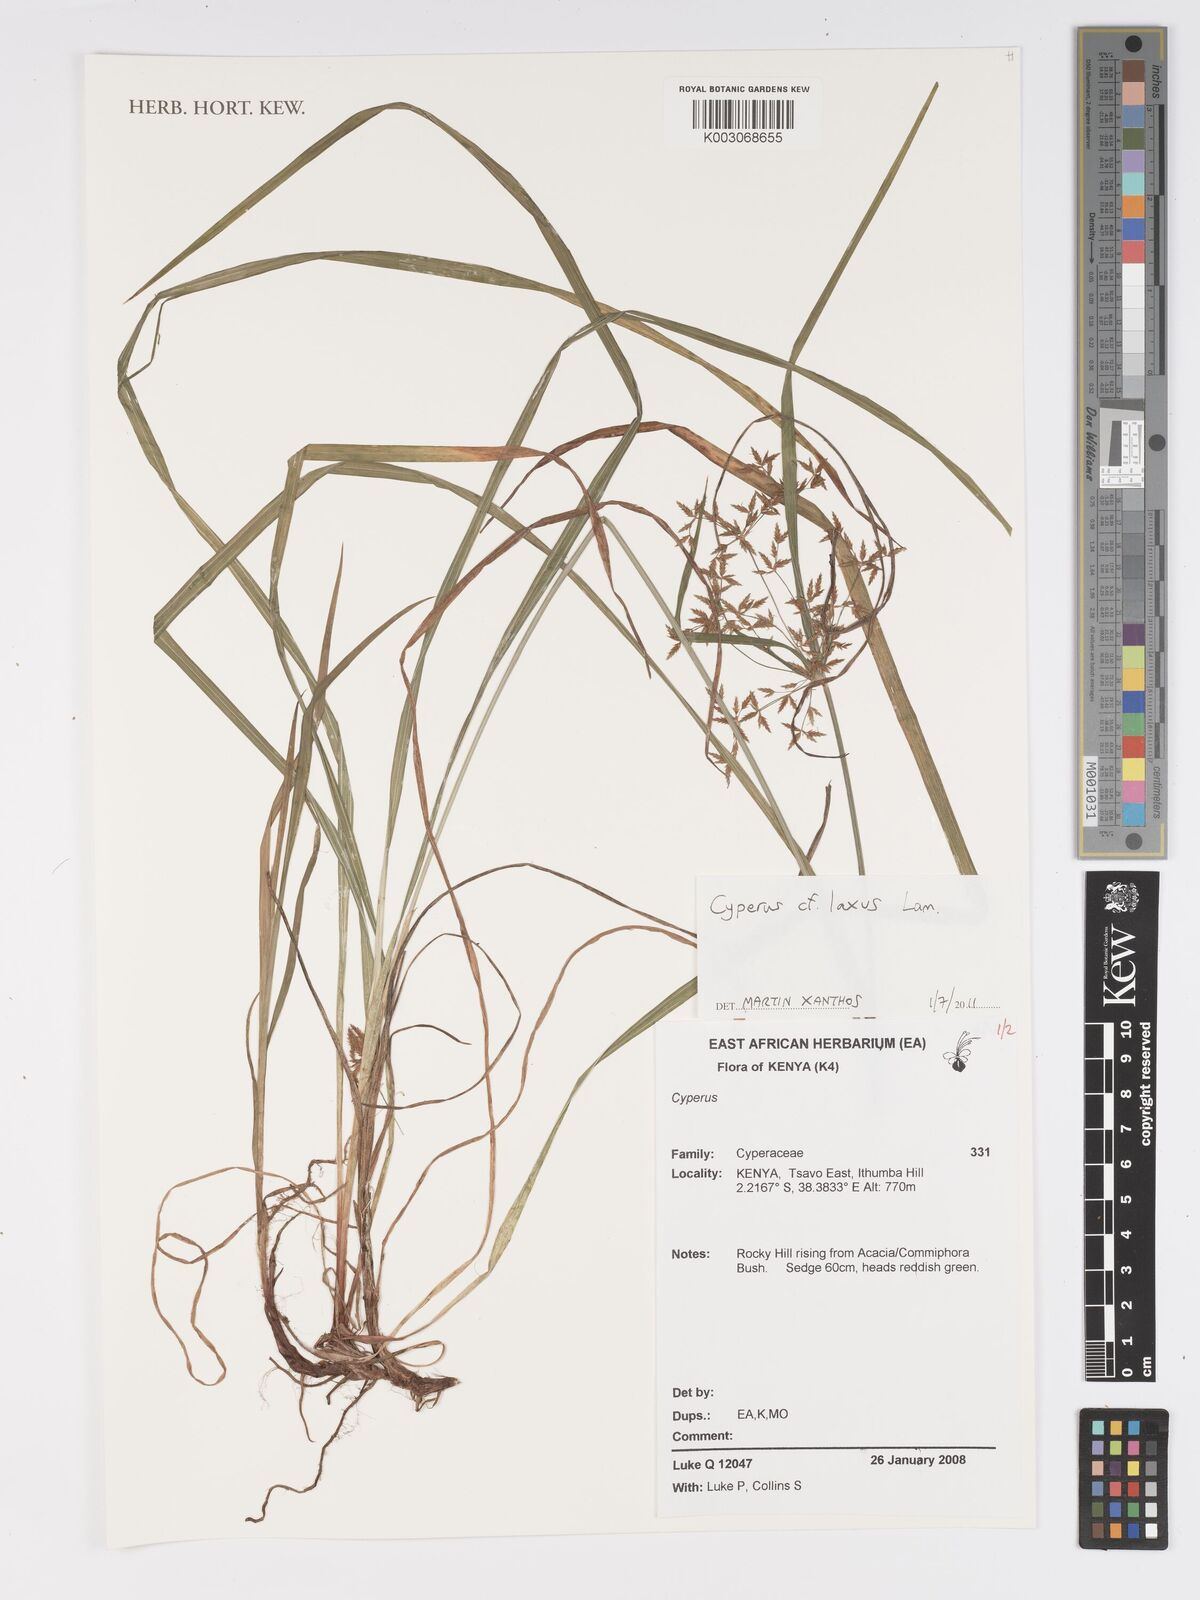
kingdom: Plantae
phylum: Tracheophyta
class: Liliopsida
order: Poales
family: Cyperaceae
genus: Cyperus
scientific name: Cyperus laxus
